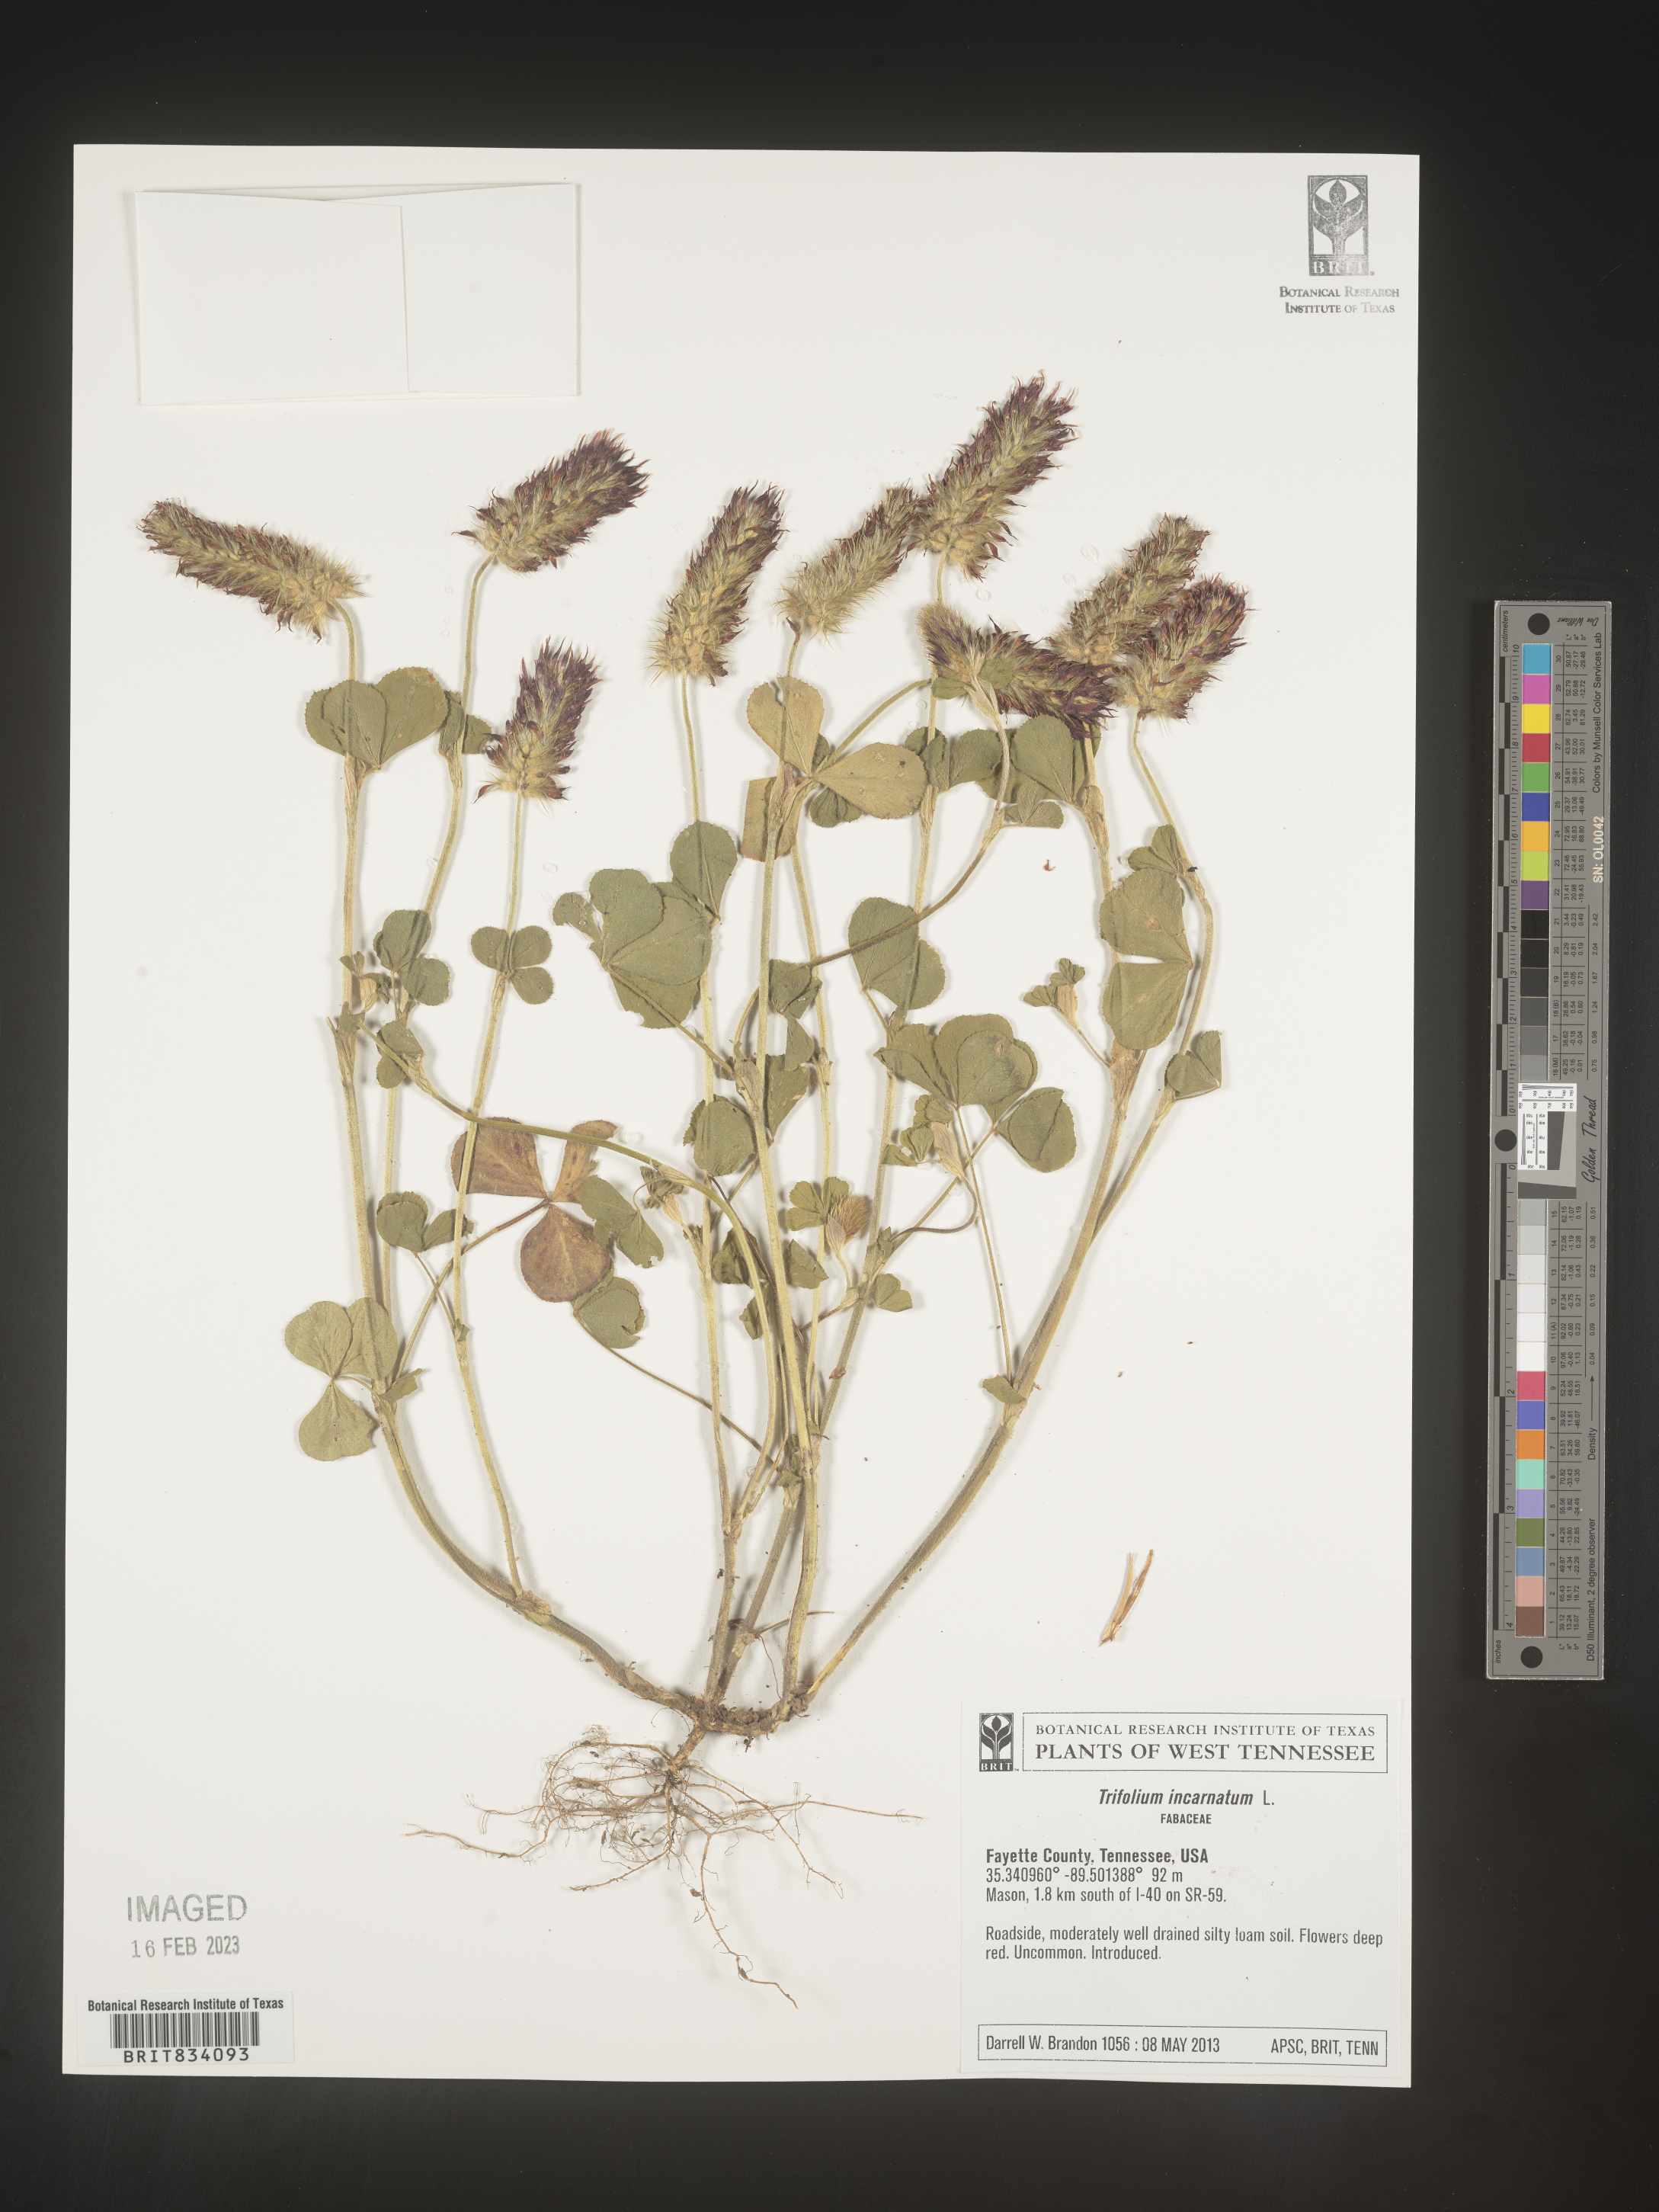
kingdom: Plantae
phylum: Tracheophyta
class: Magnoliopsida
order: Fabales
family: Fabaceae
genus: Trifolium
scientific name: Trifolium incarnatum
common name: Crimson clover
